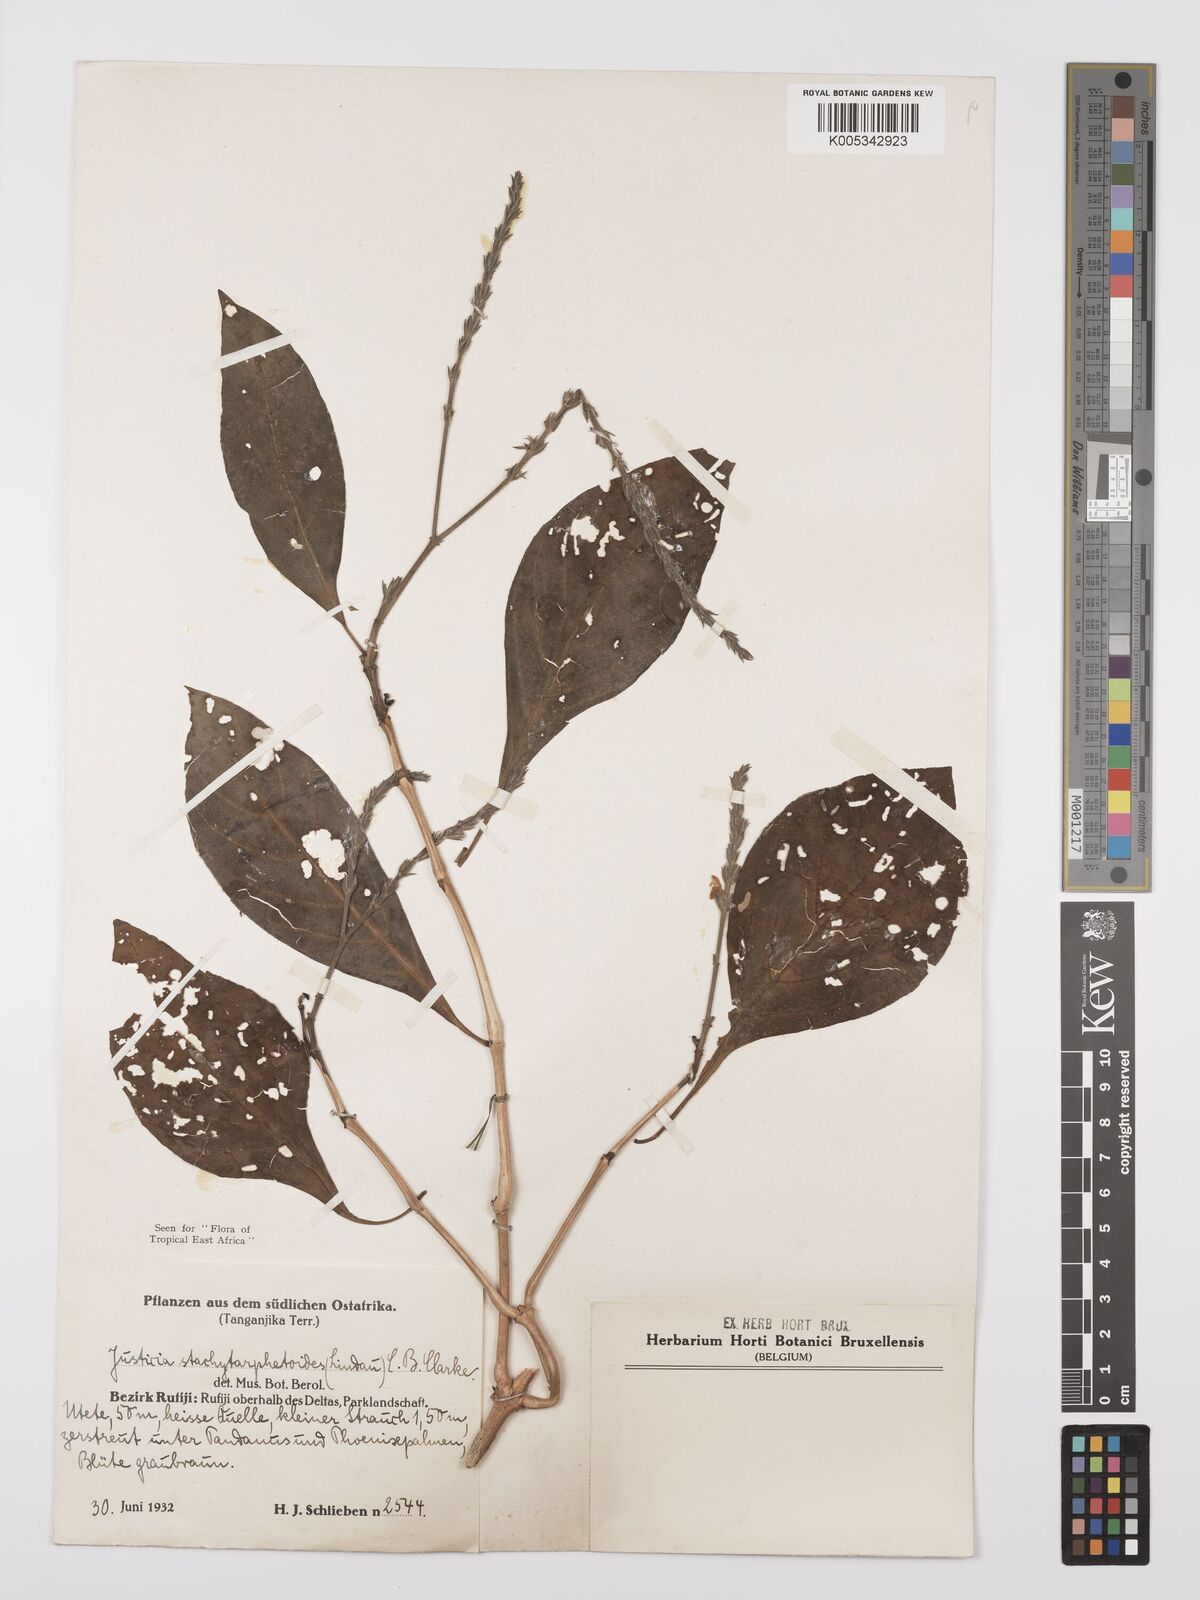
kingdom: Plantae
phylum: Tracheophyta
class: Magnoliopsida
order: Lamiales
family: Acanthaceae
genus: Justicia
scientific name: Justicia stachytarphetoides
